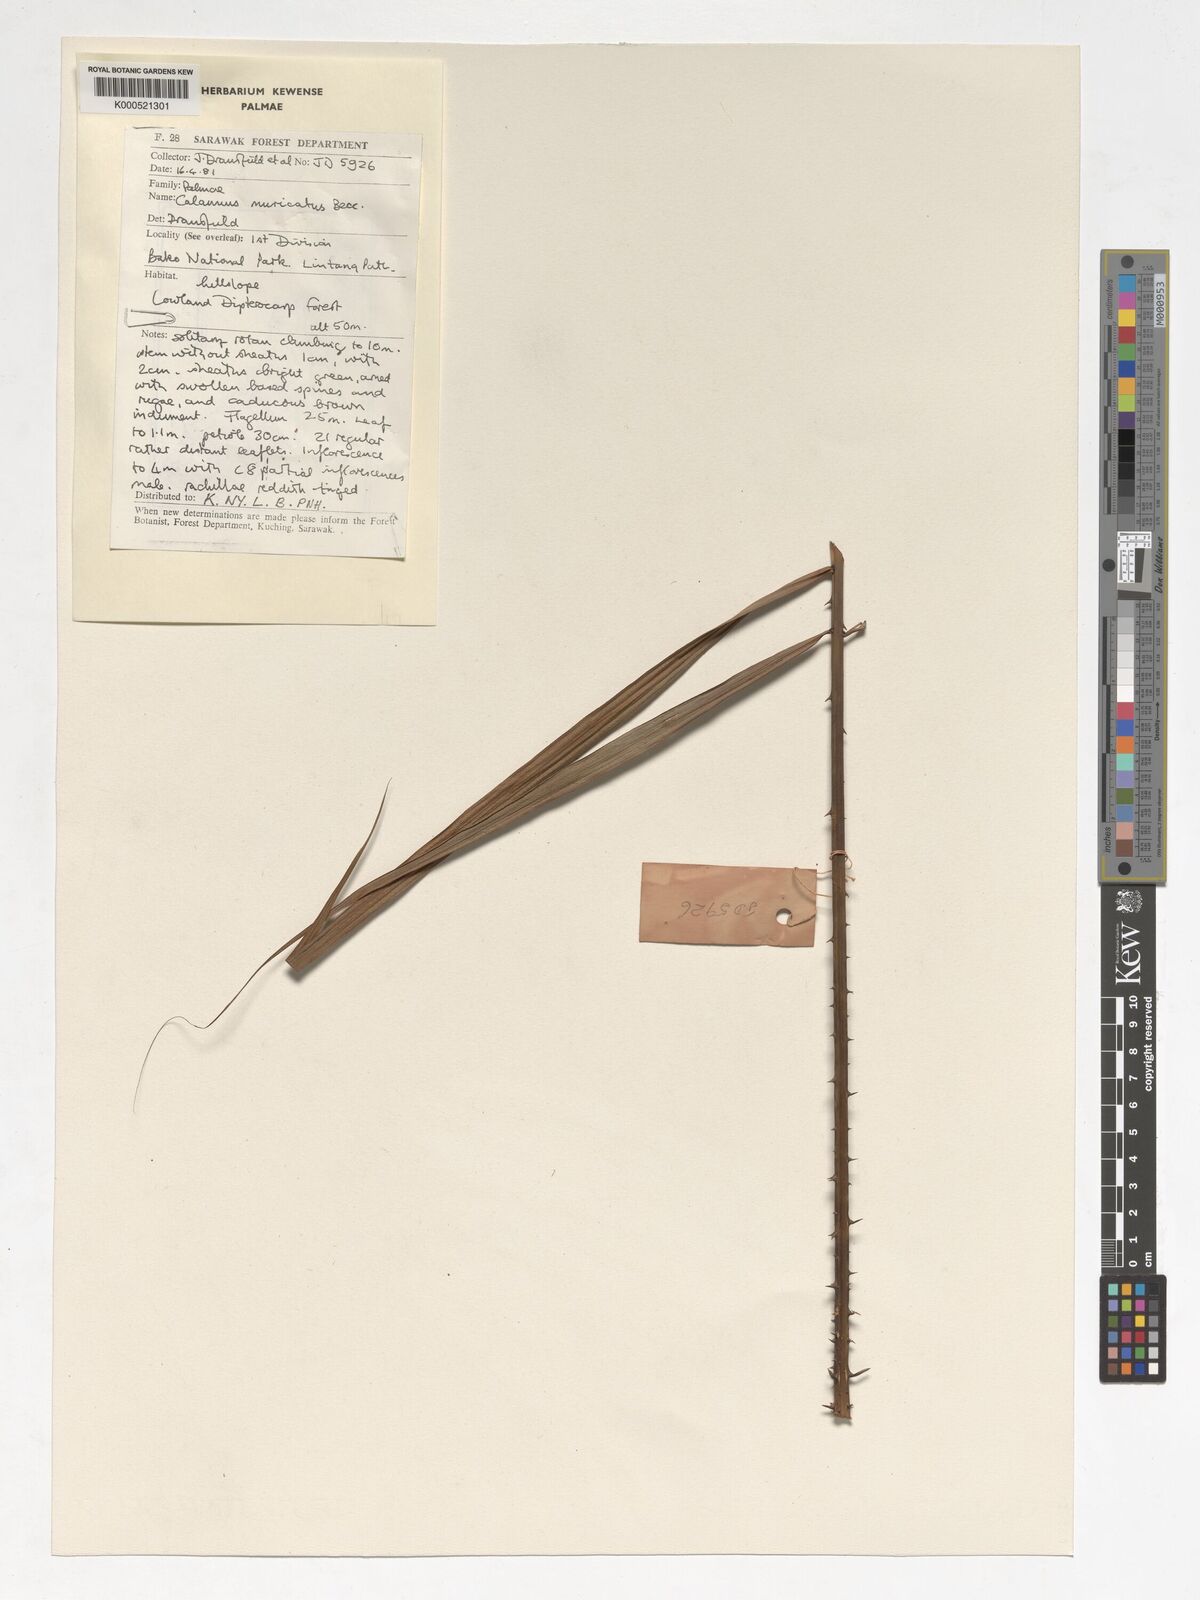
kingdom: Plantae
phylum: Tracheophyta
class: Liliopsida
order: Arecales
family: Arecaceae
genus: Calamus
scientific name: Calamus muricatus
